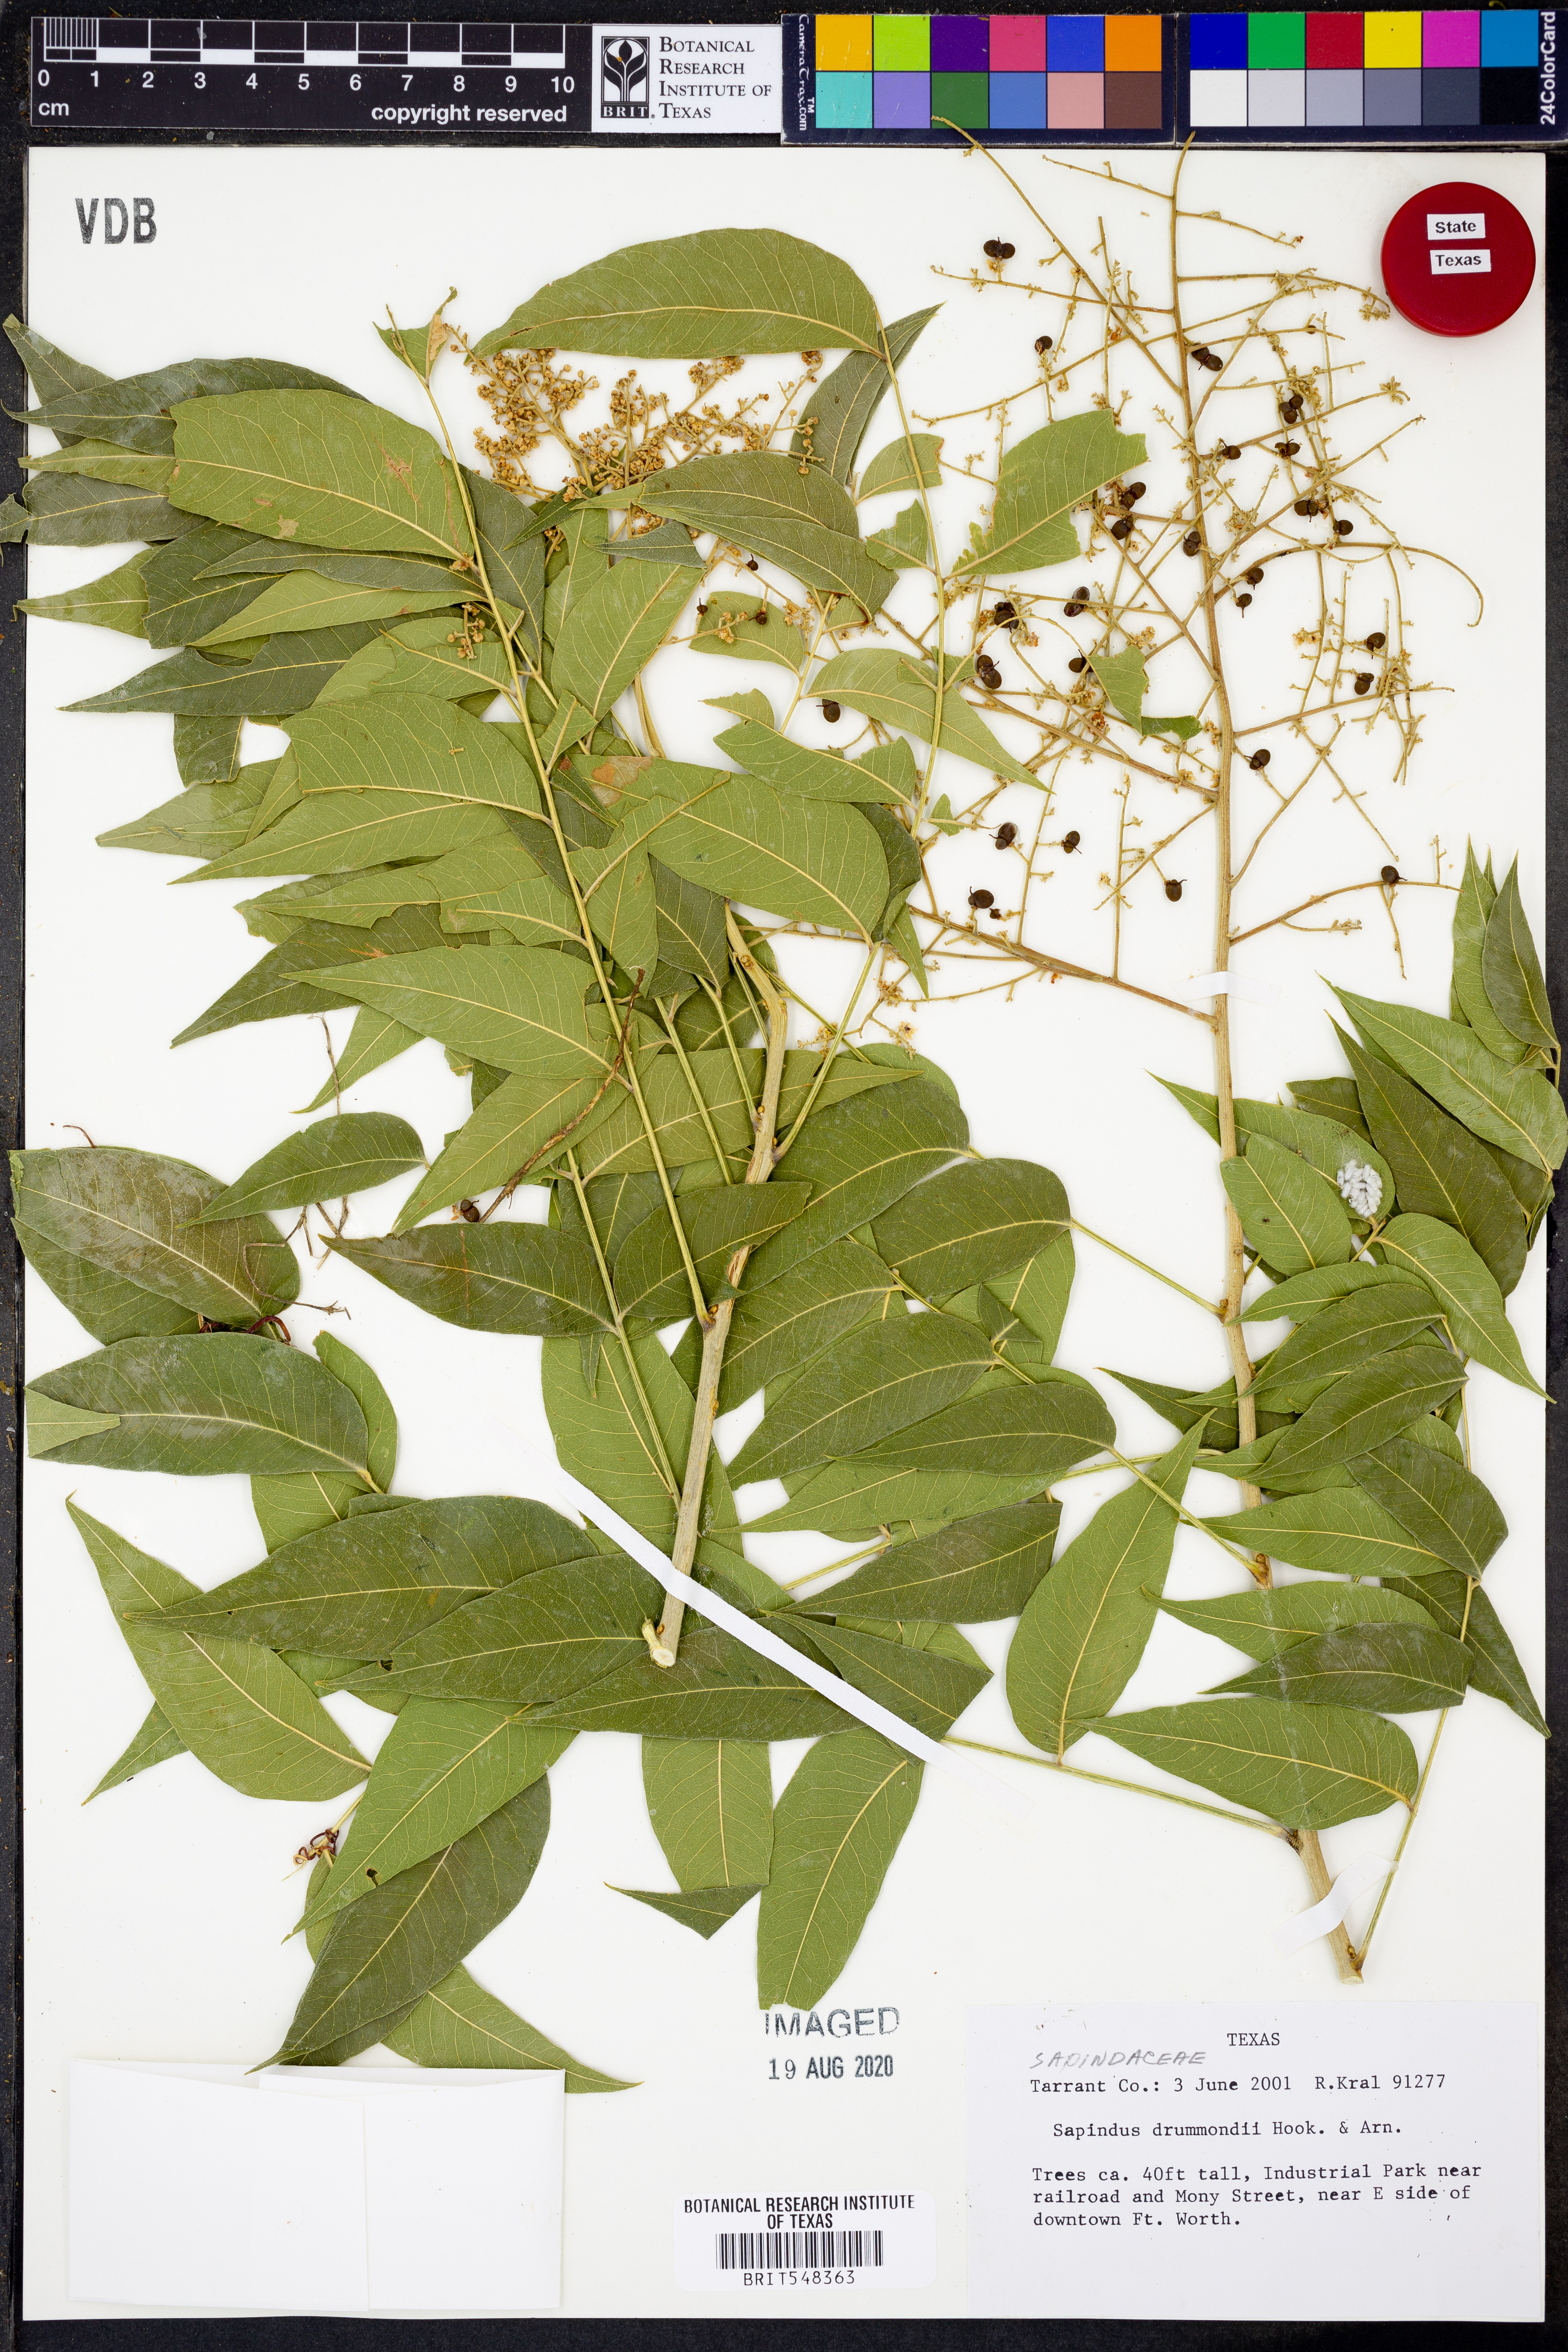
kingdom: Plantae
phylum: Tracheophyta
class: Magnoliopsida
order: Sapindales
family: Sapindaceae
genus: Sapindus
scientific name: Sapindus drummondii
